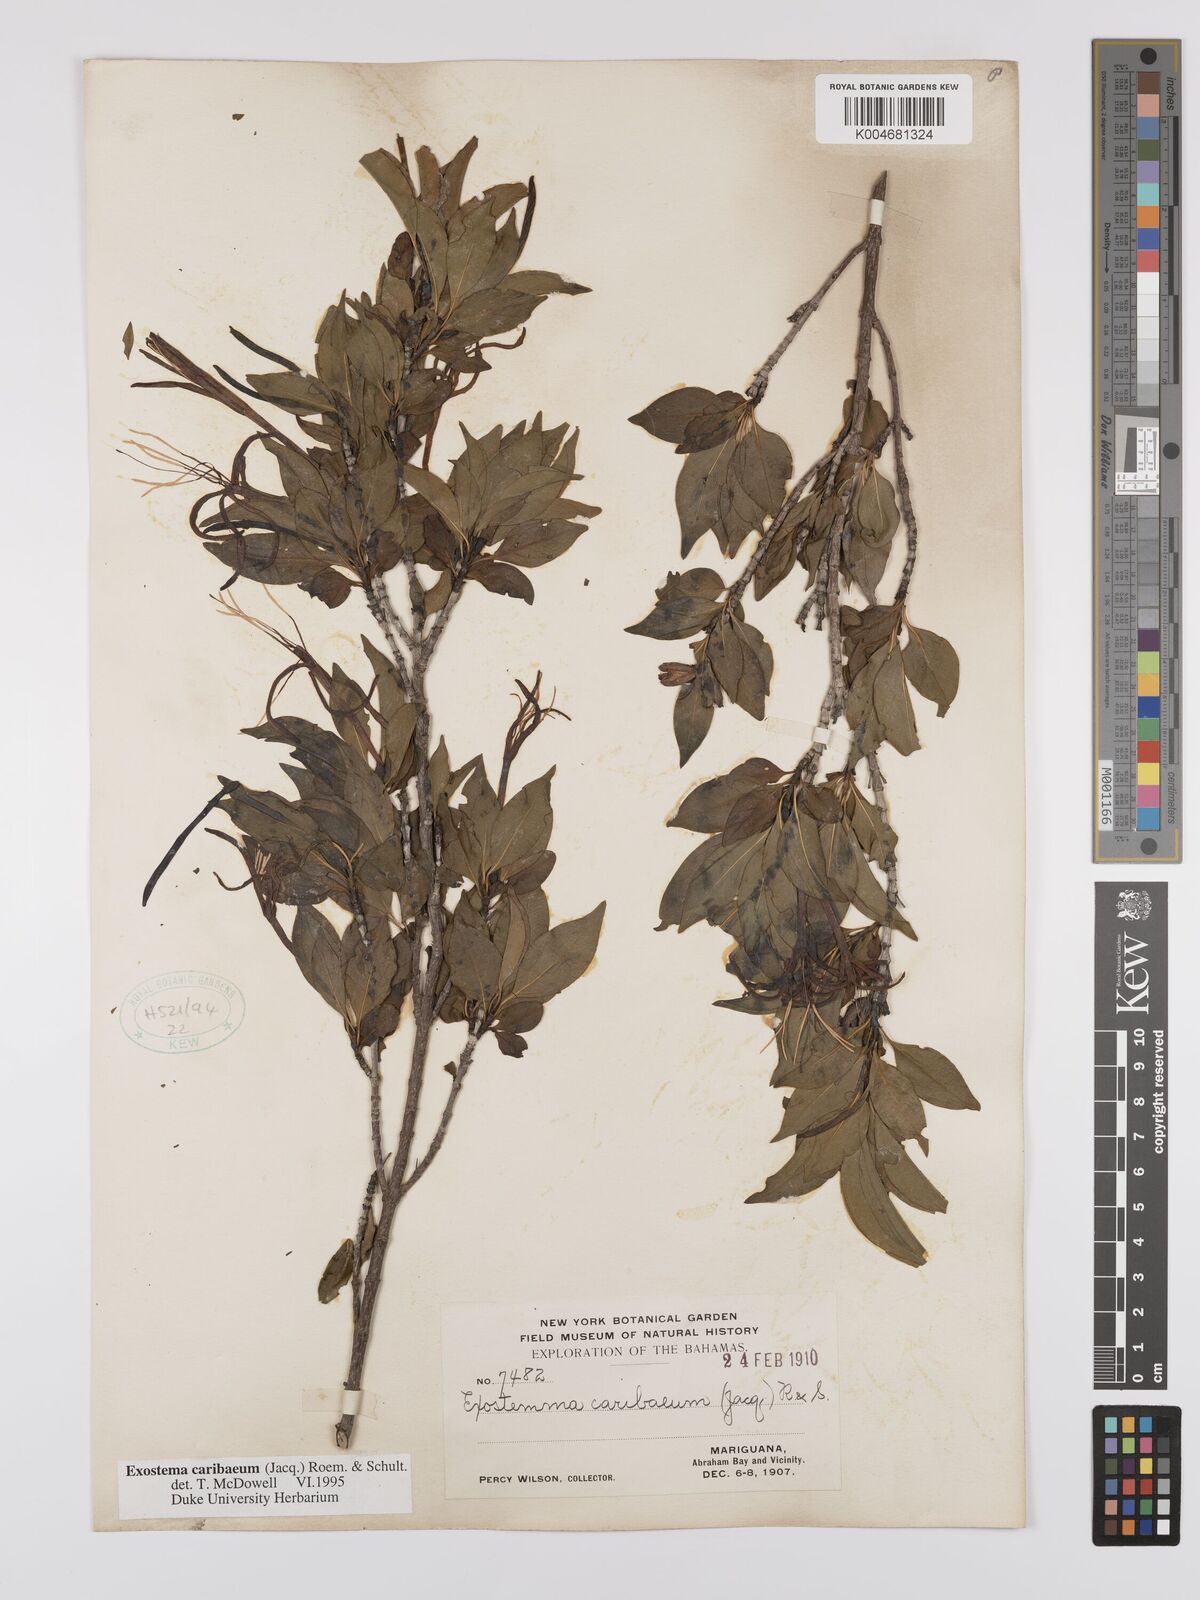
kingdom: Plantae
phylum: Tracheophyta
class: Magnoliopsida
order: Gentianales
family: Rubiaceae
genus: Exostema
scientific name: Exostema caribaeum
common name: Princewood
